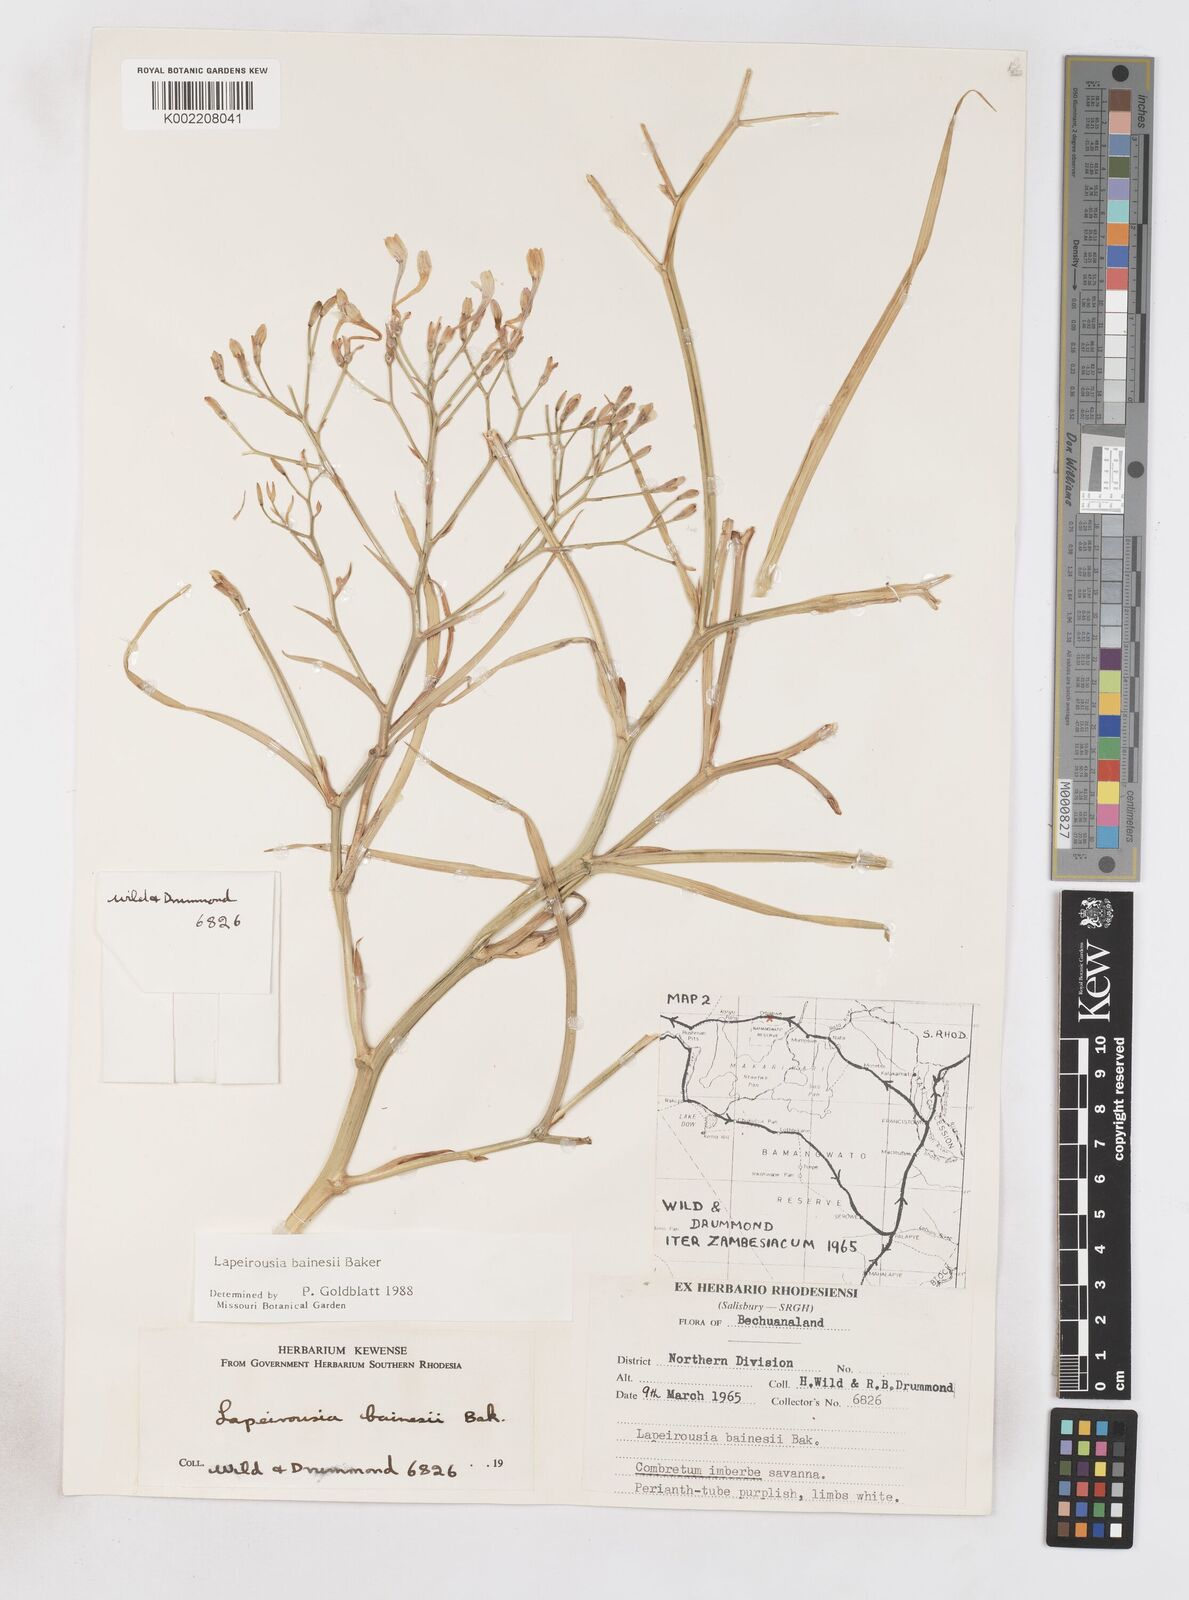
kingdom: Plantae
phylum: Tracheophyta
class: Liliopsida
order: Asparagales
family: Iridaceae
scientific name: Iridaceae
